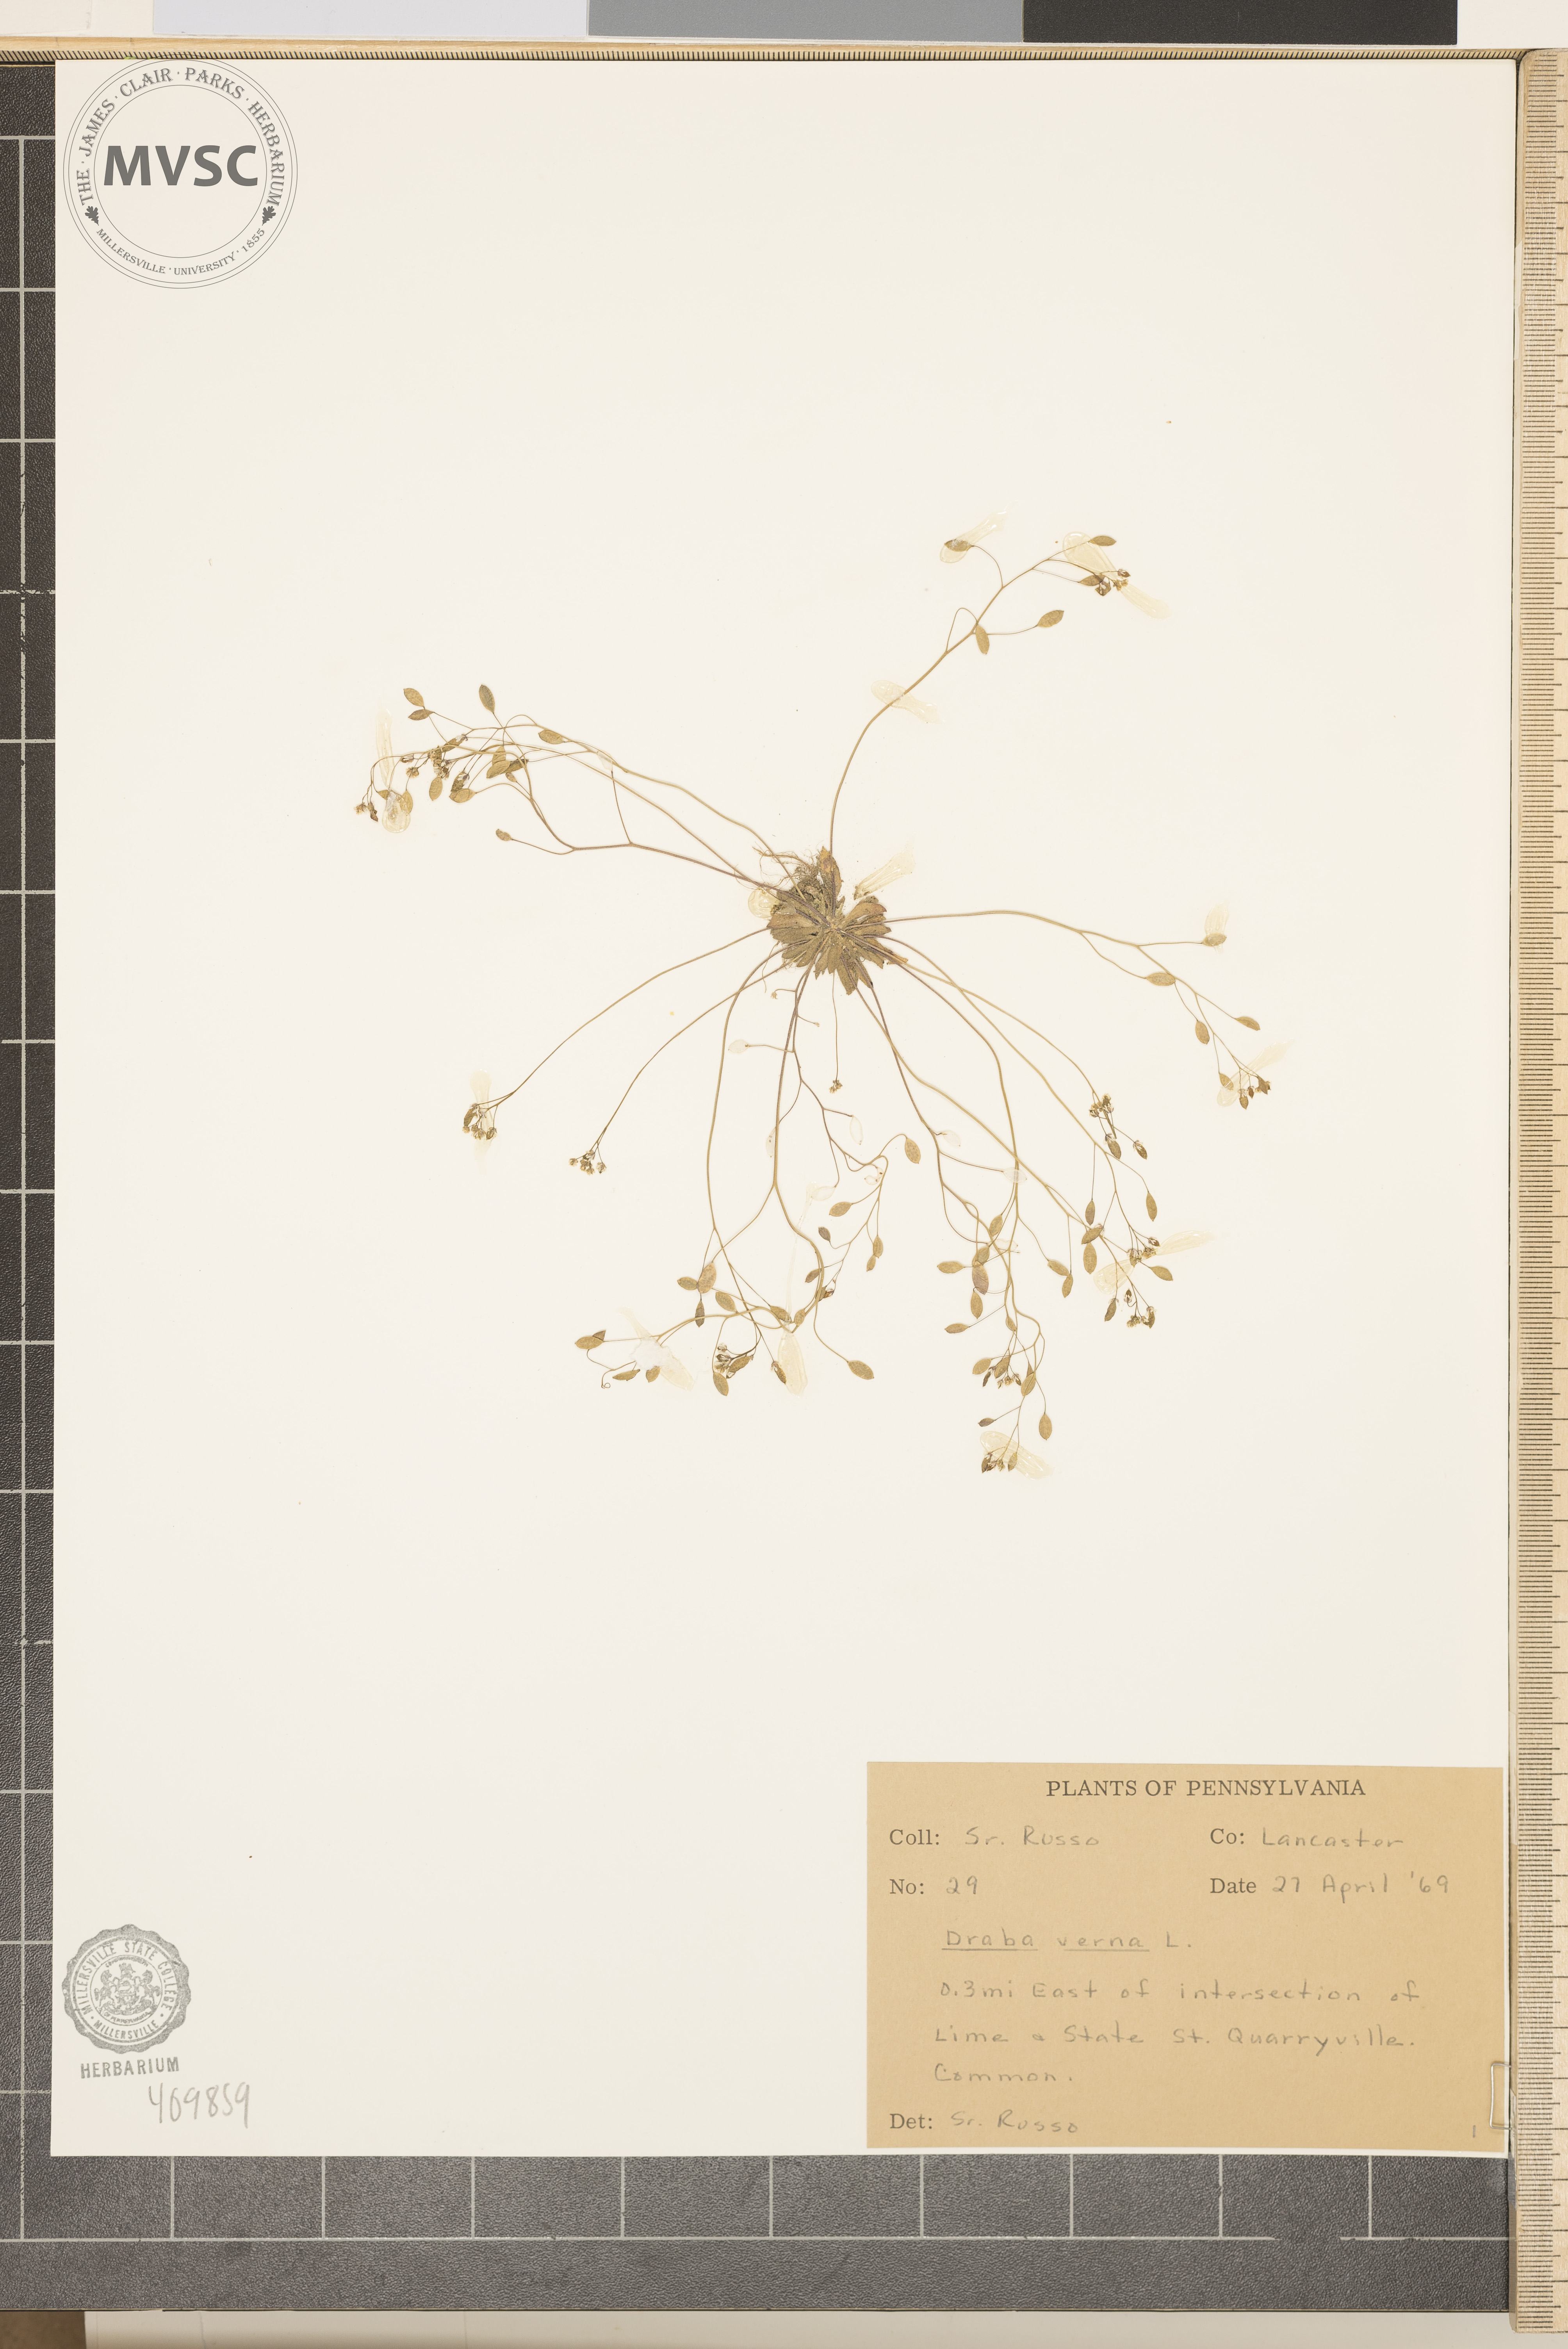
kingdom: Plantae
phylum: Tracheophyta
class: Magnoliopsida
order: Brassicales
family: Brassicaceae
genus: Draba
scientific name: Draba verna
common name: Spring draba
